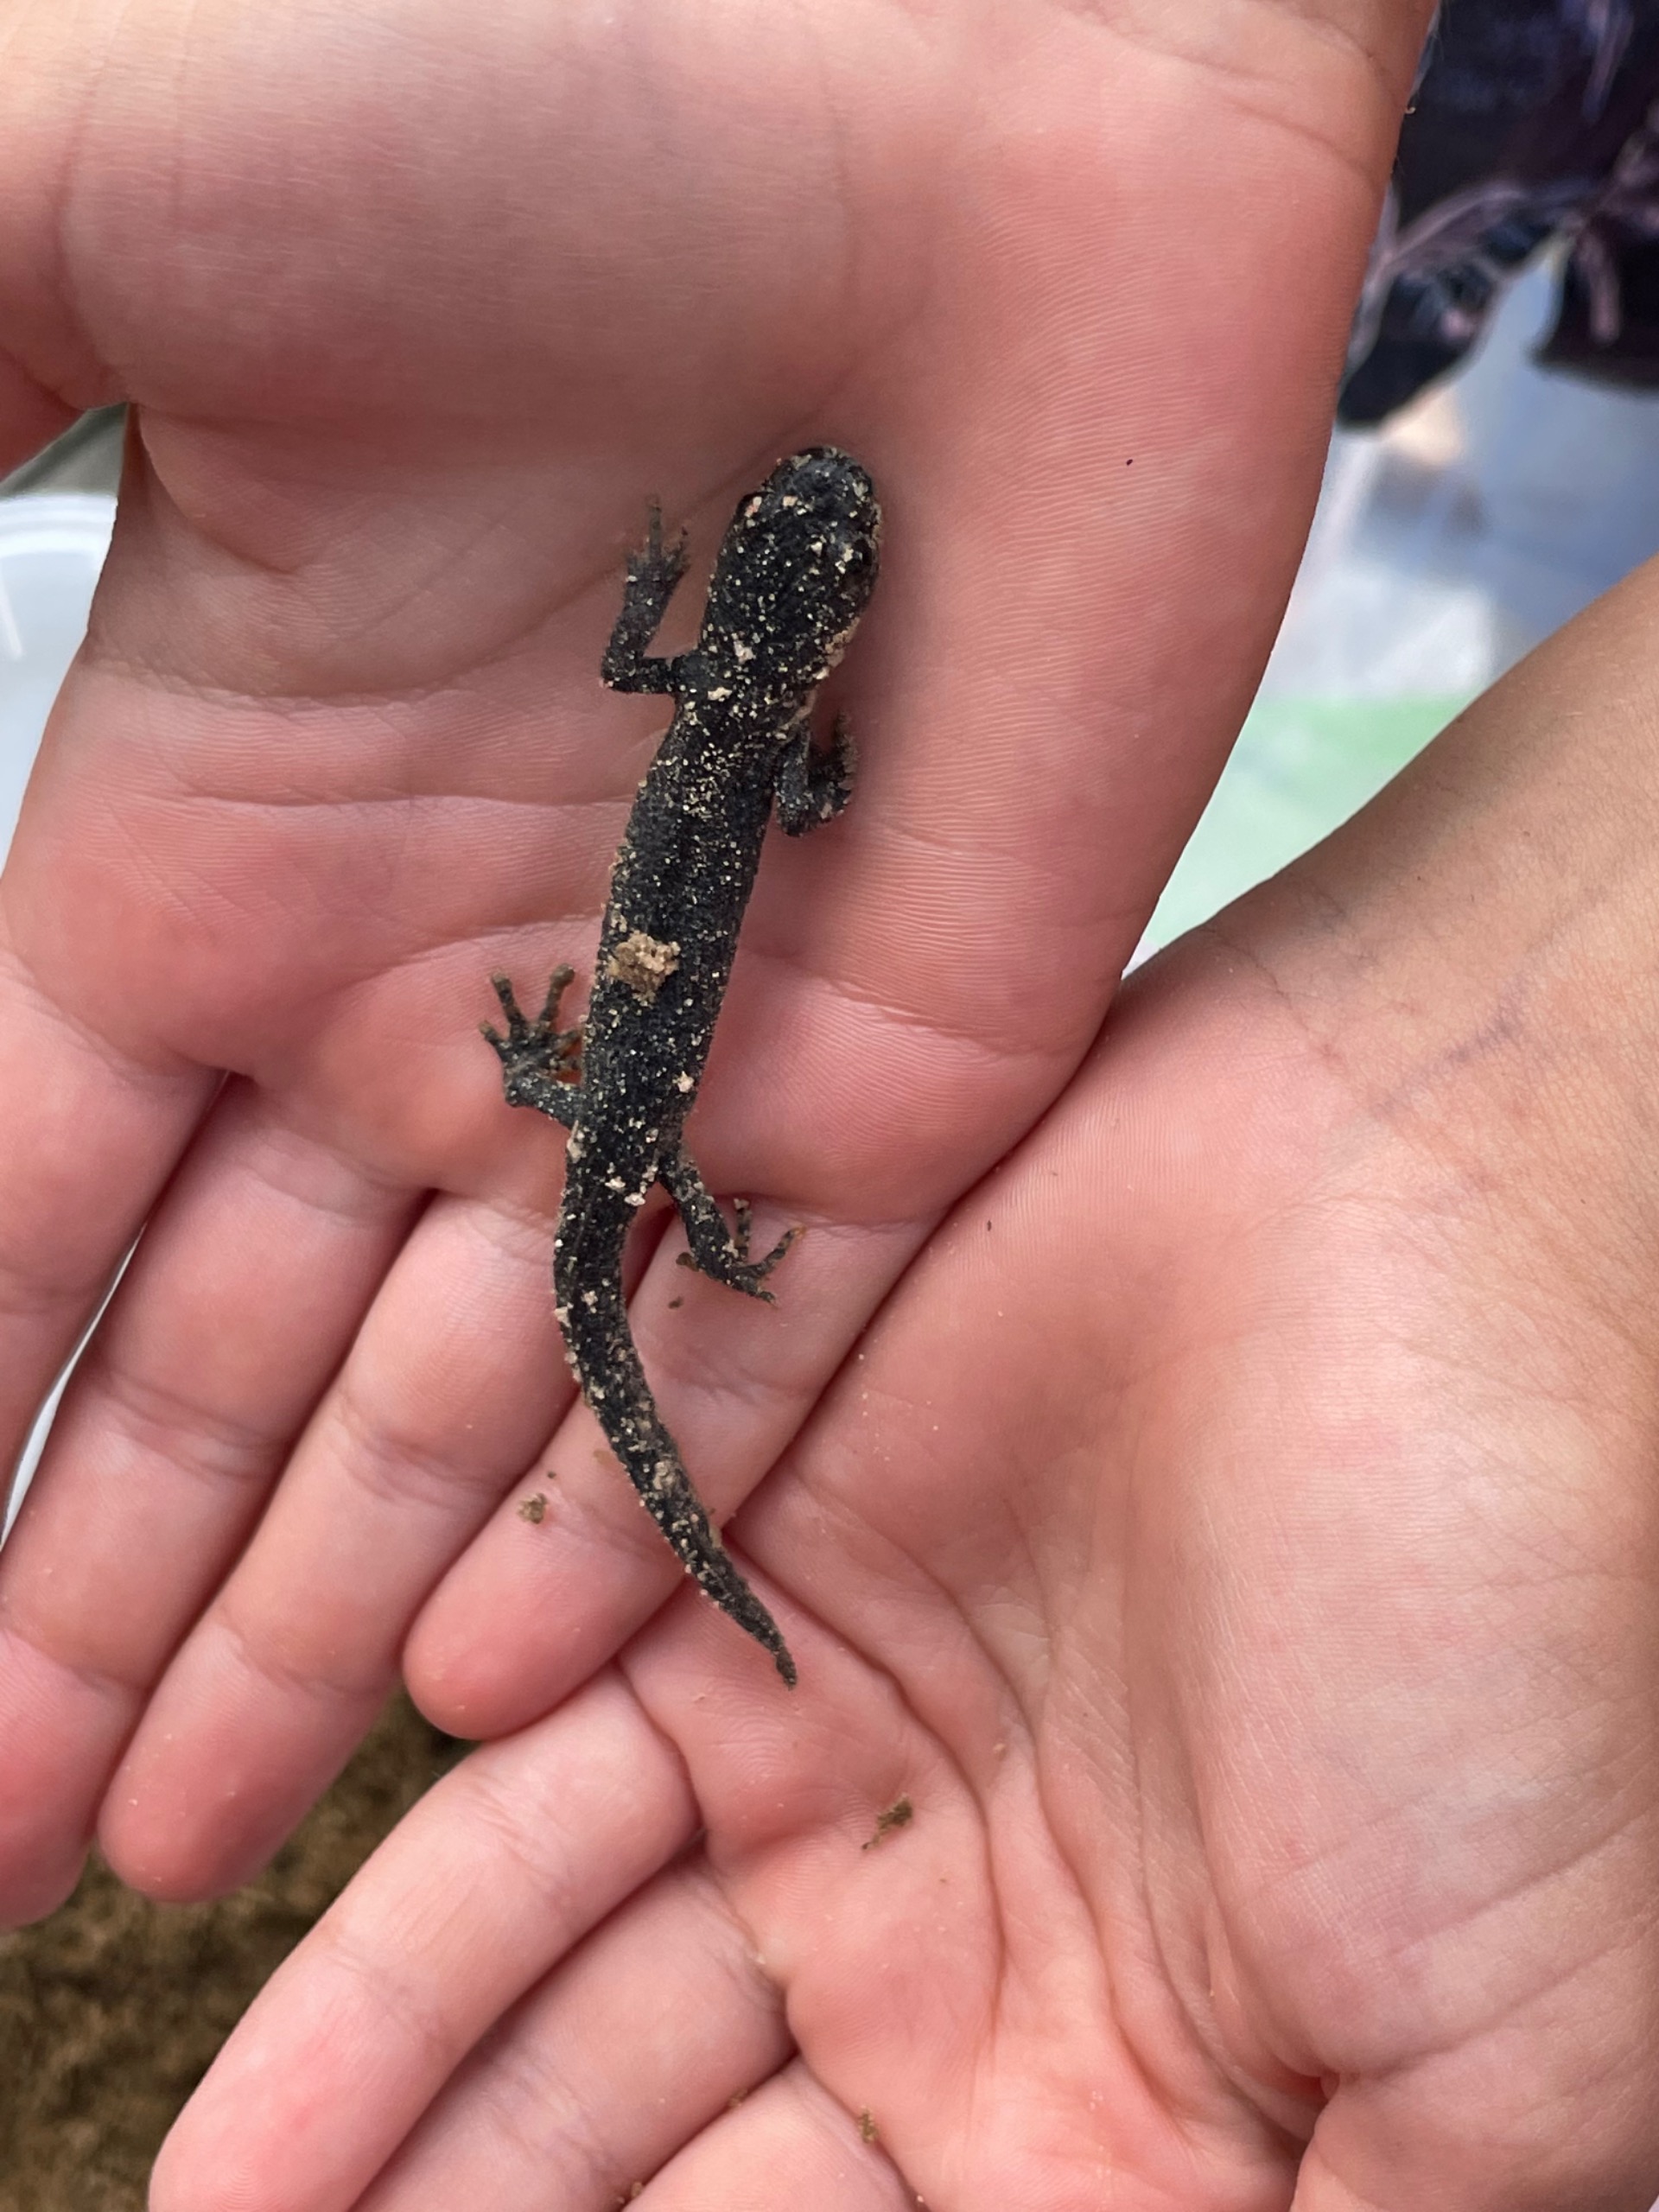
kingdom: Animalia
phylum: Chordata
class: Amphibia
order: Caudata
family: Salamandridae
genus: Triturus
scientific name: Triturus cristatus
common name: Stor vandsalamander
